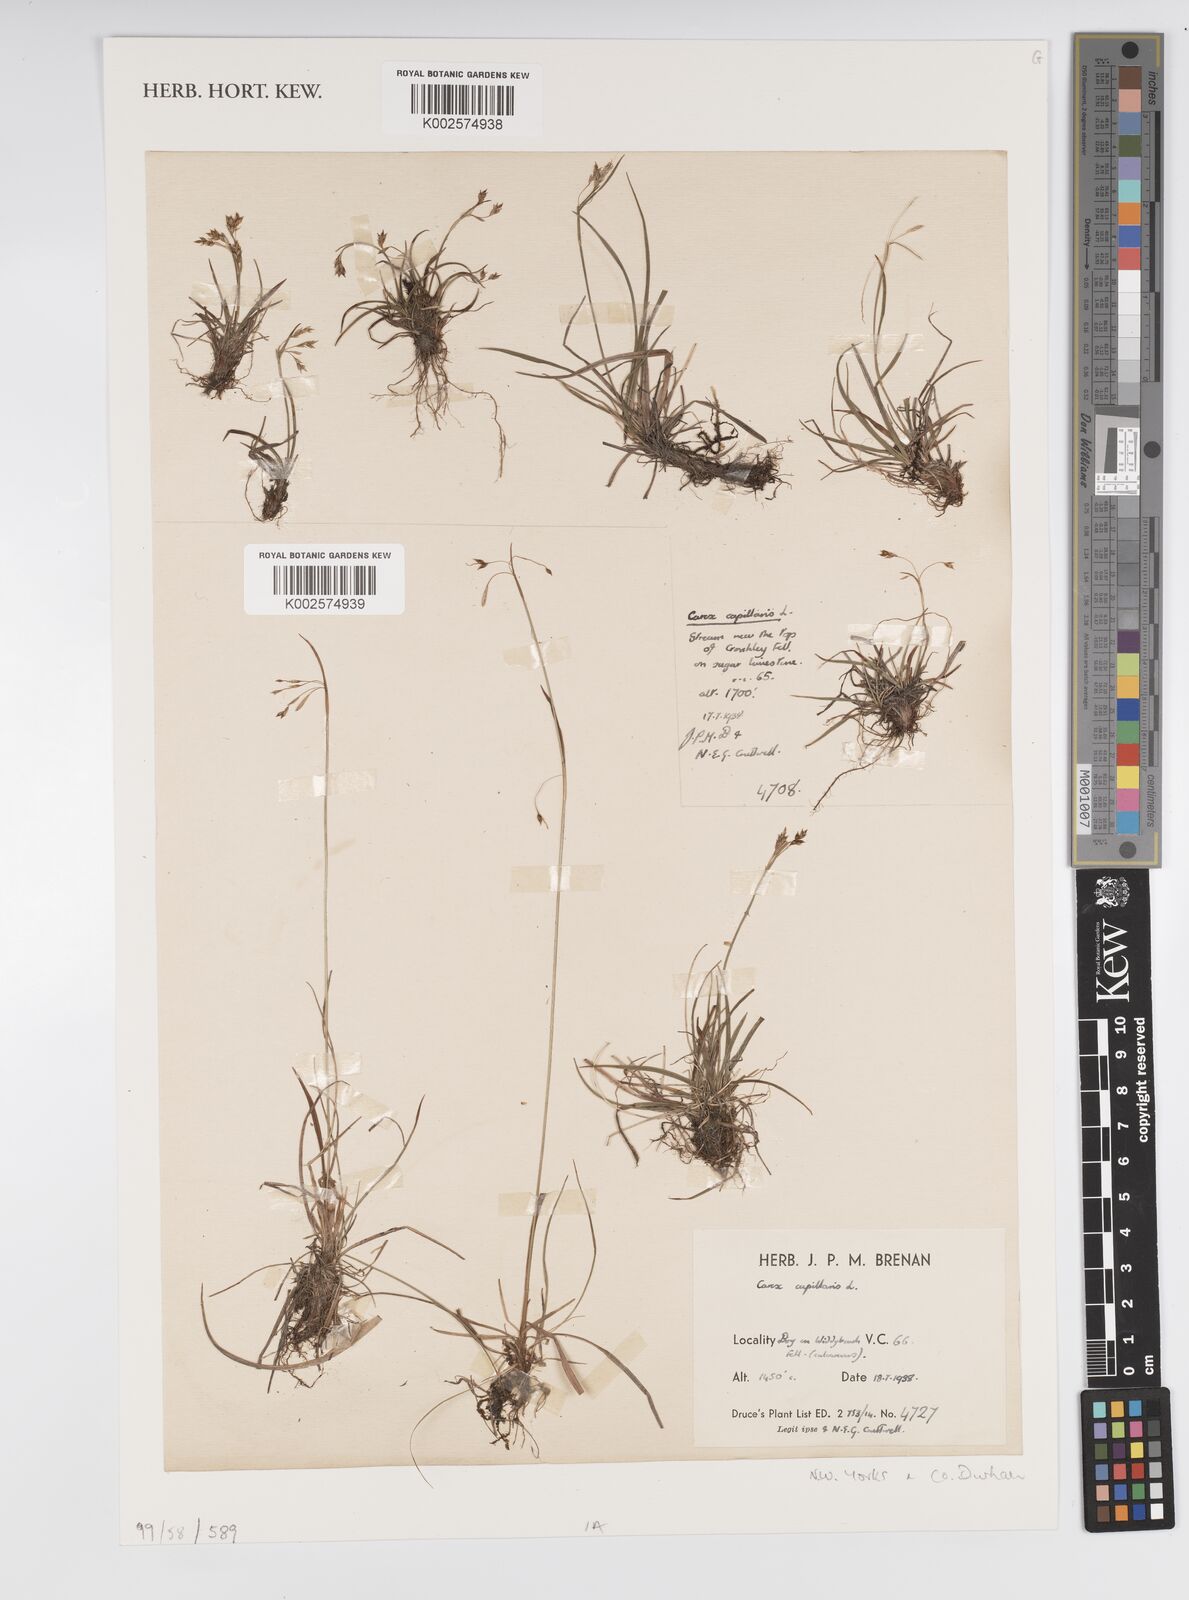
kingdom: Plantae
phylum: Tracheophyta
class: Liliopsida
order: Poales
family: Cyperaceae
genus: Carex
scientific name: Carex capillaris
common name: Hair sedge
